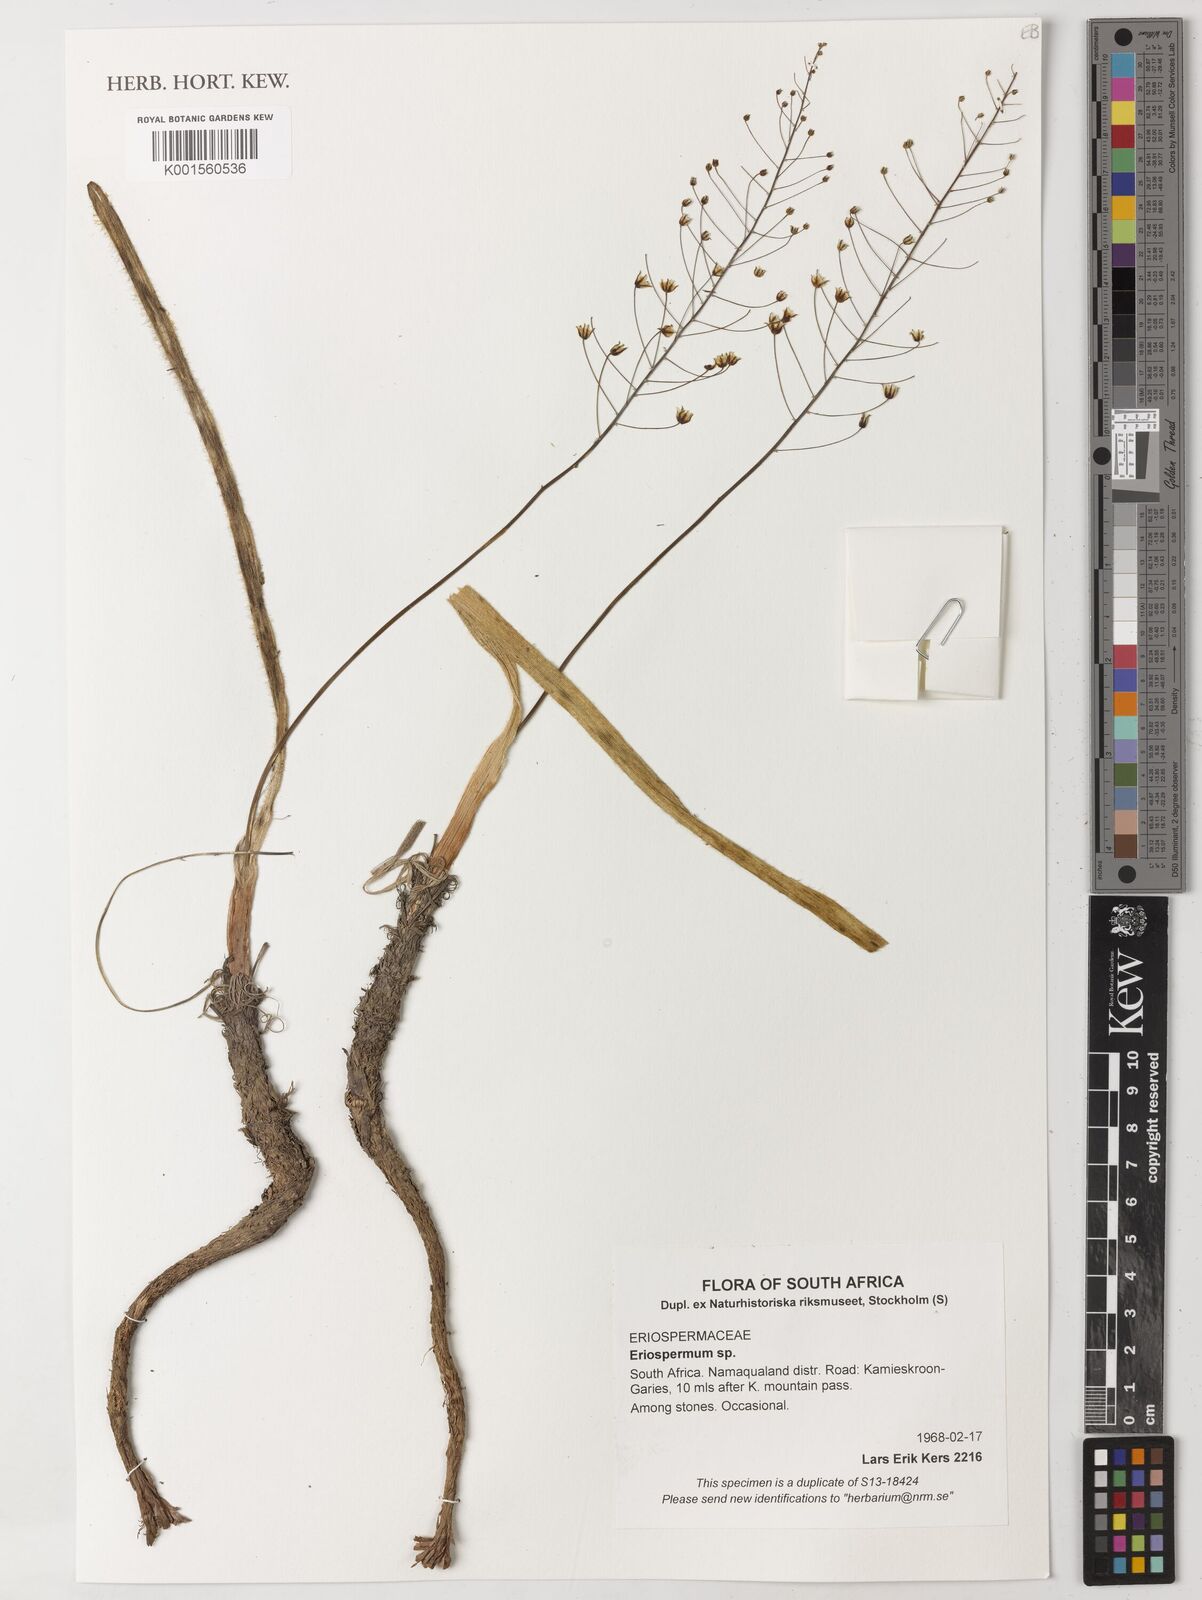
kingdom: Plantae
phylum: Tracheophyta
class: Liliopsida
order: Asparagales
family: Asparagaceae
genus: Eriospermum
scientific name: Eriospermum
